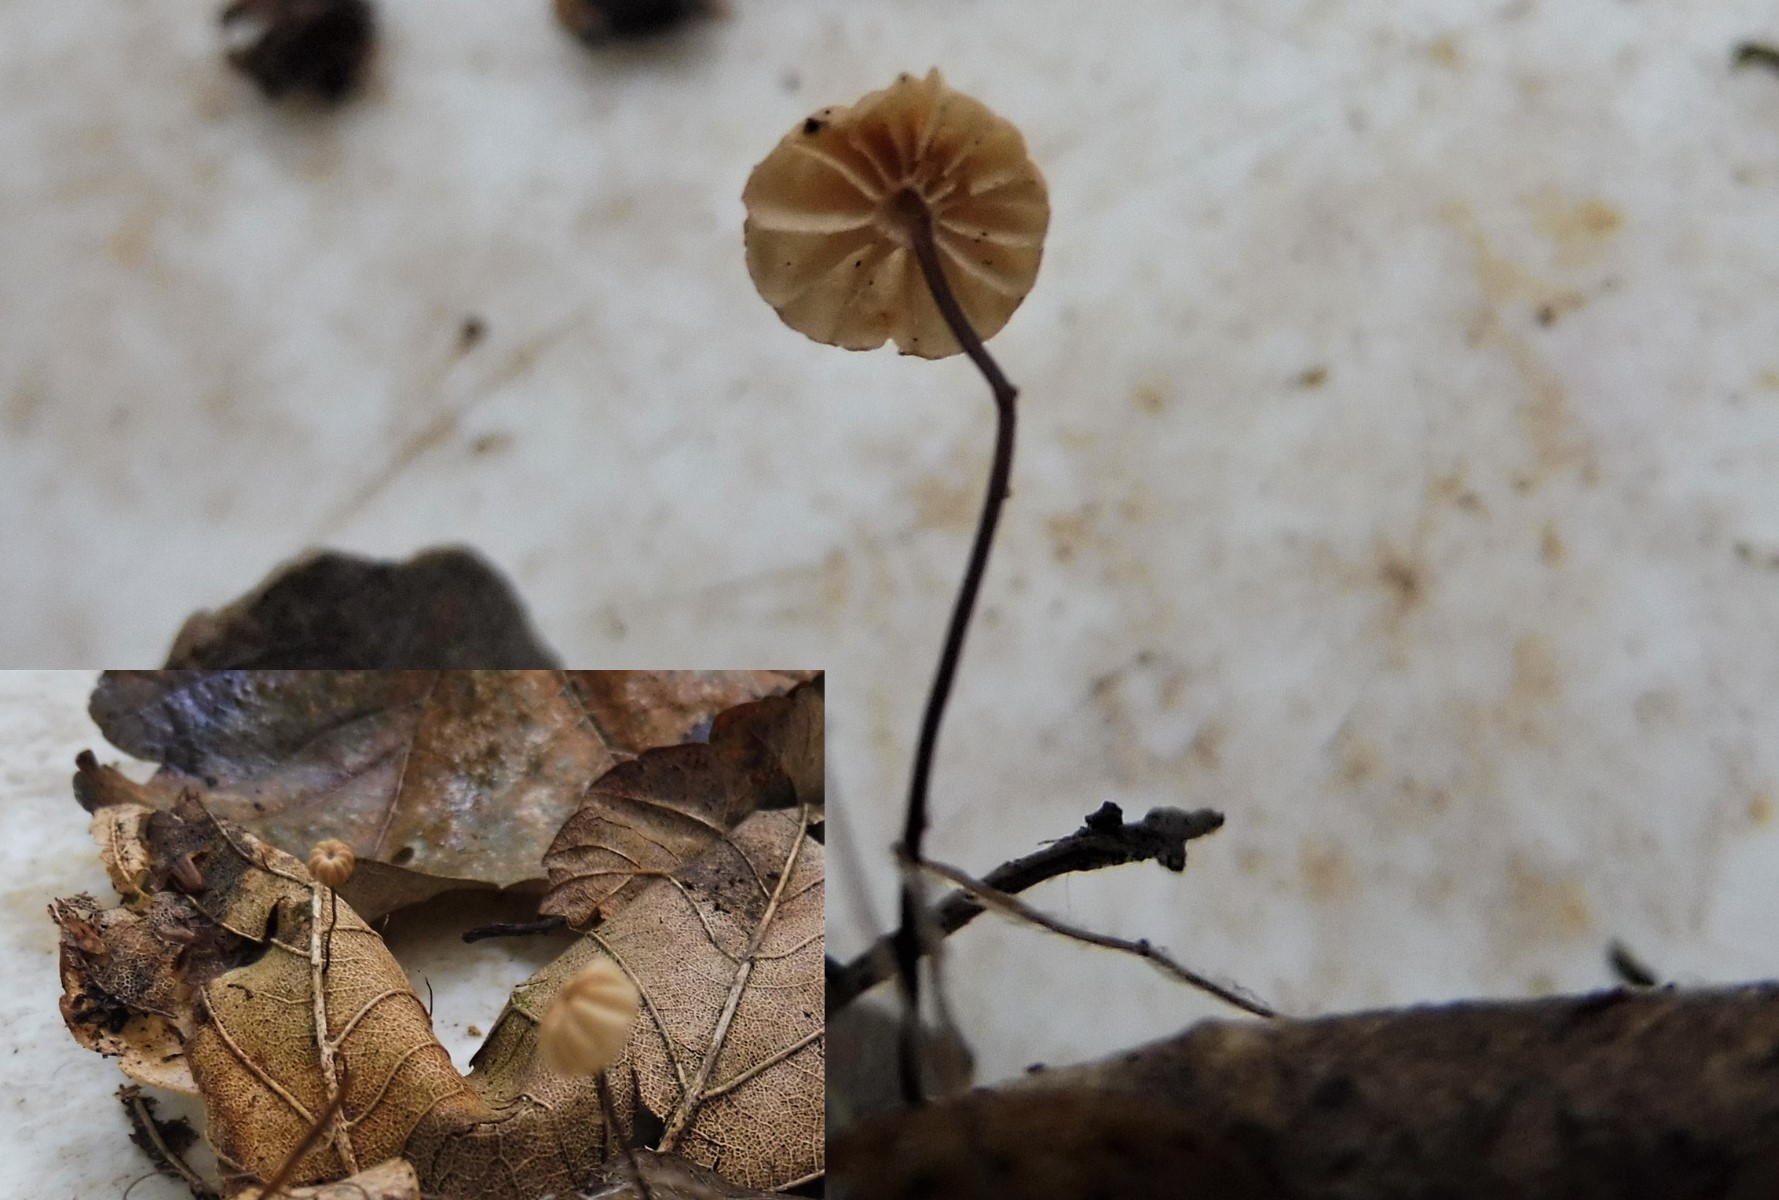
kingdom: Fungi
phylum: Basidiomycota
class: Agaricomycetes
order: Agaricales
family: Marasmiaceae
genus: Marasmius
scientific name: Marasmius bulliardii
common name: furet bruskhat
